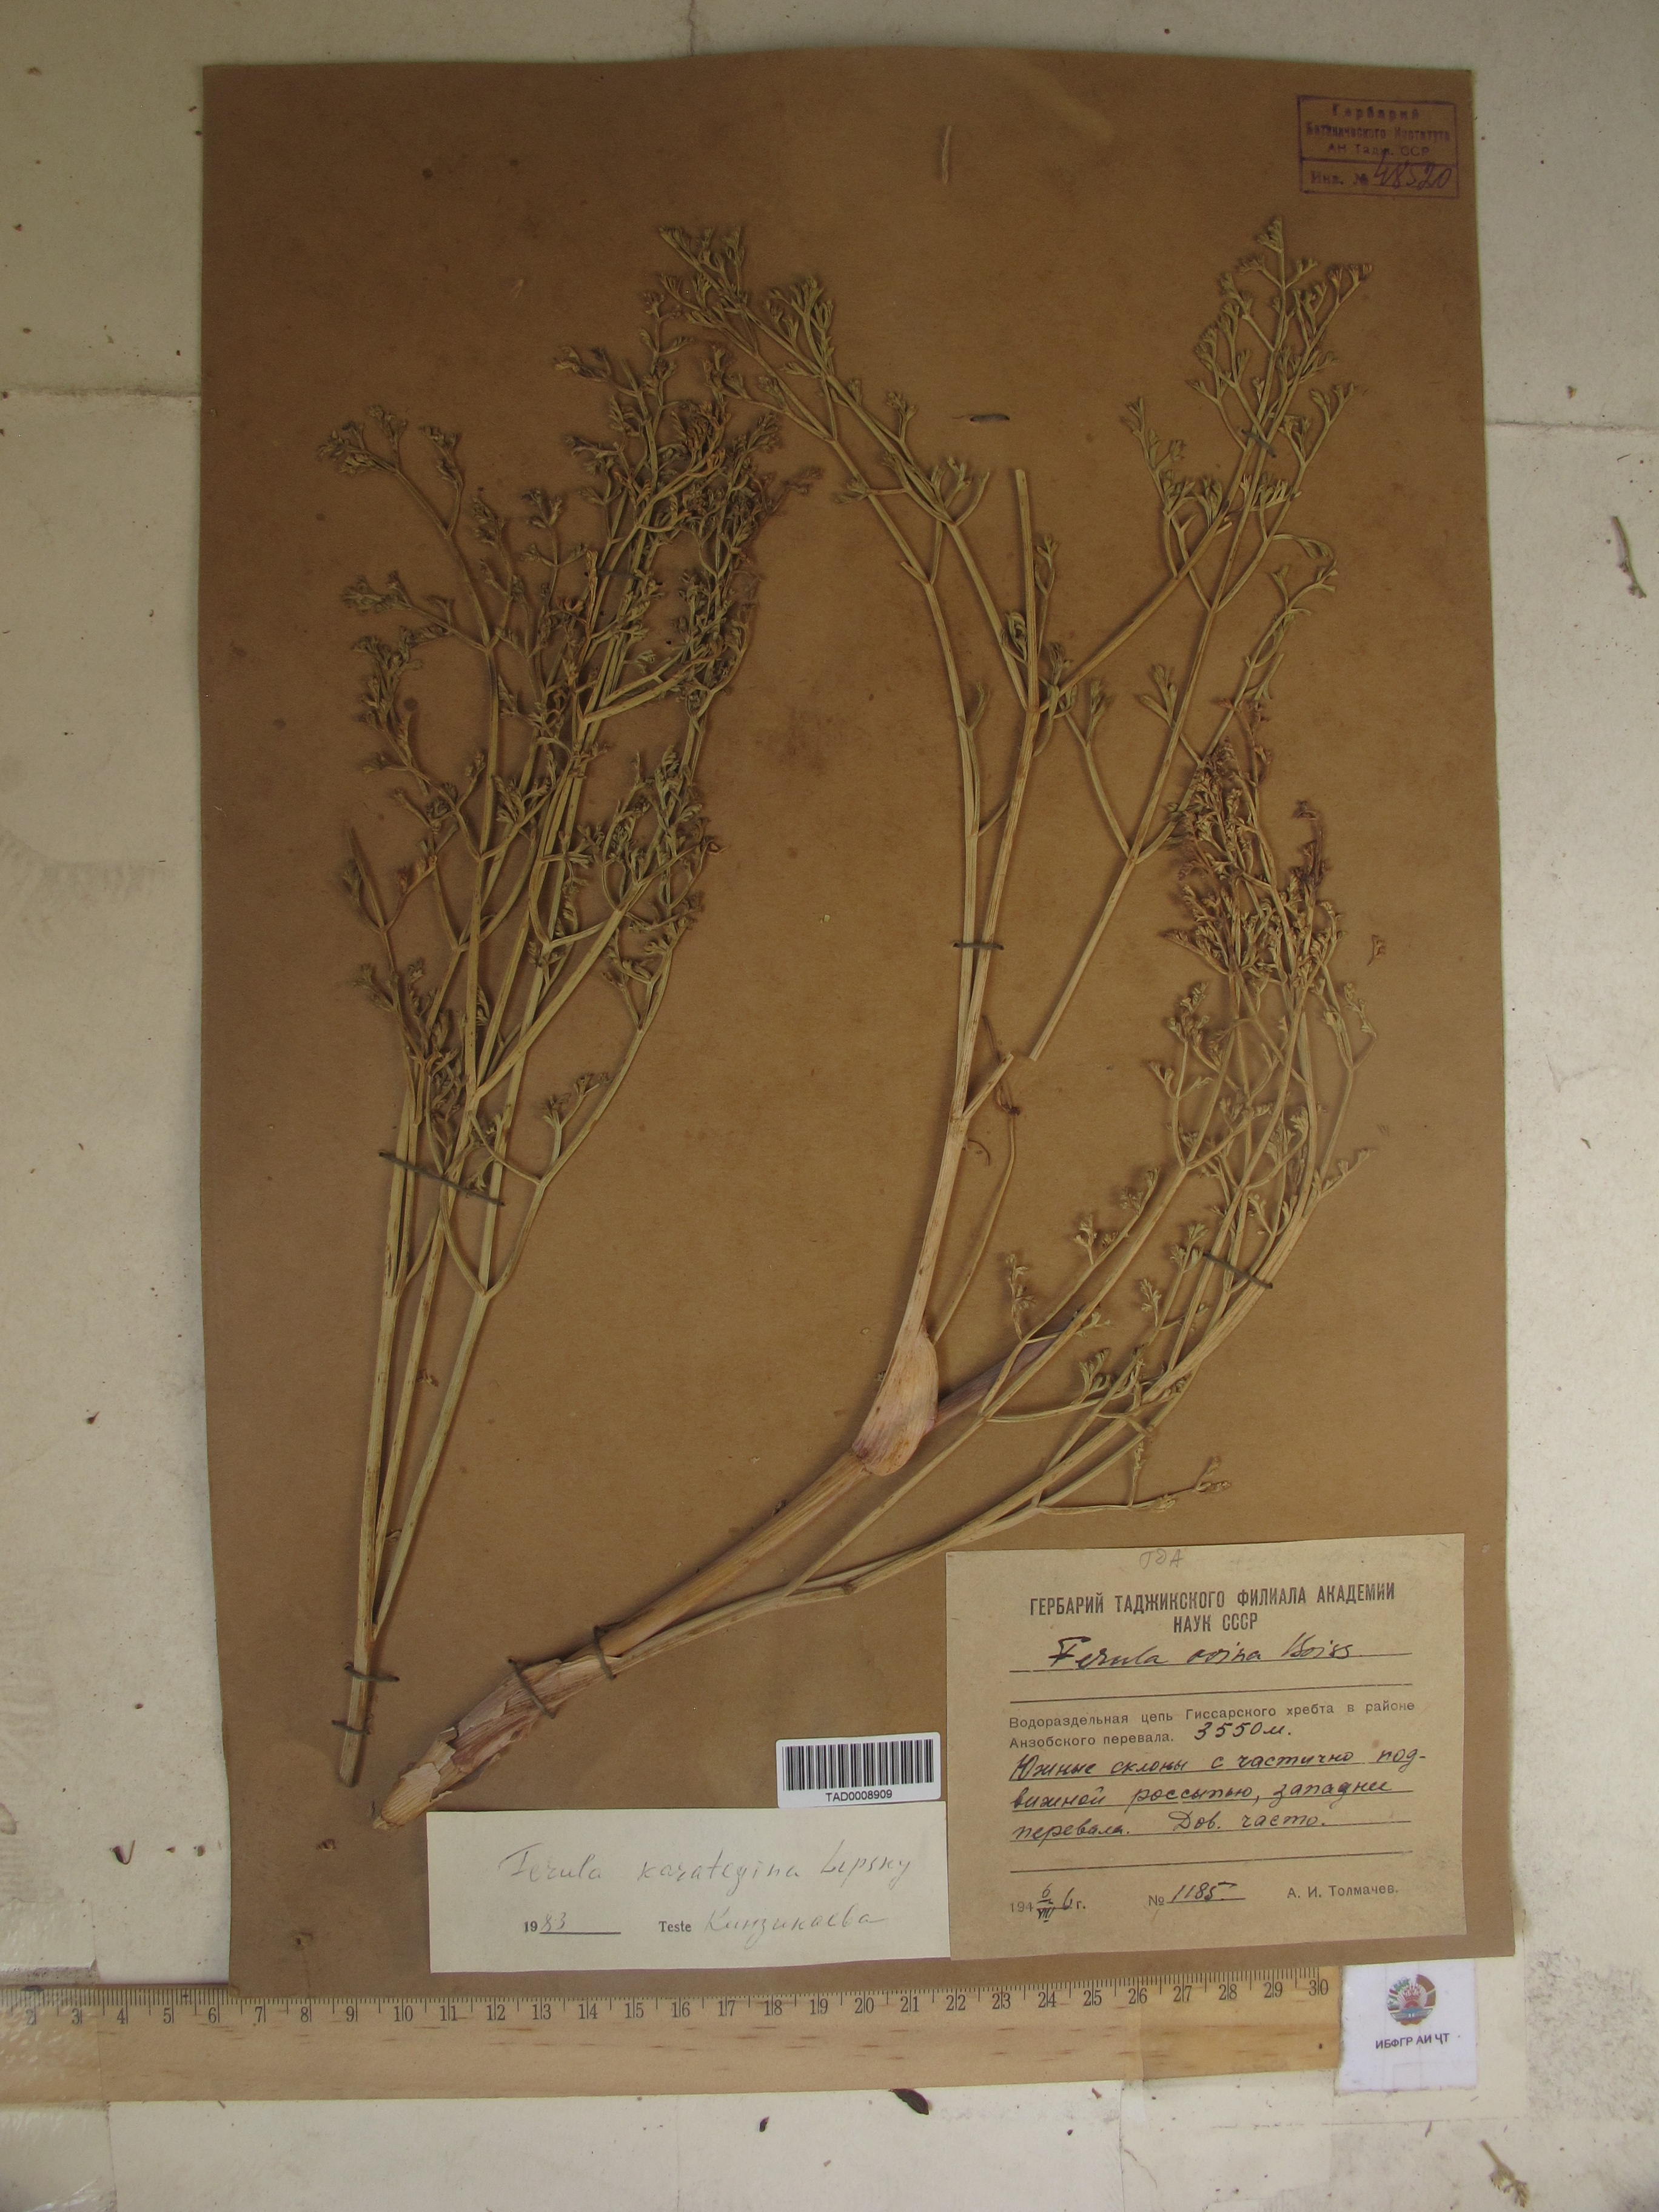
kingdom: Plantae
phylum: Tracheophyta
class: Magnoliopsida
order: Apiales
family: Apiaceae
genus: Ferula
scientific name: Ferula karategina
